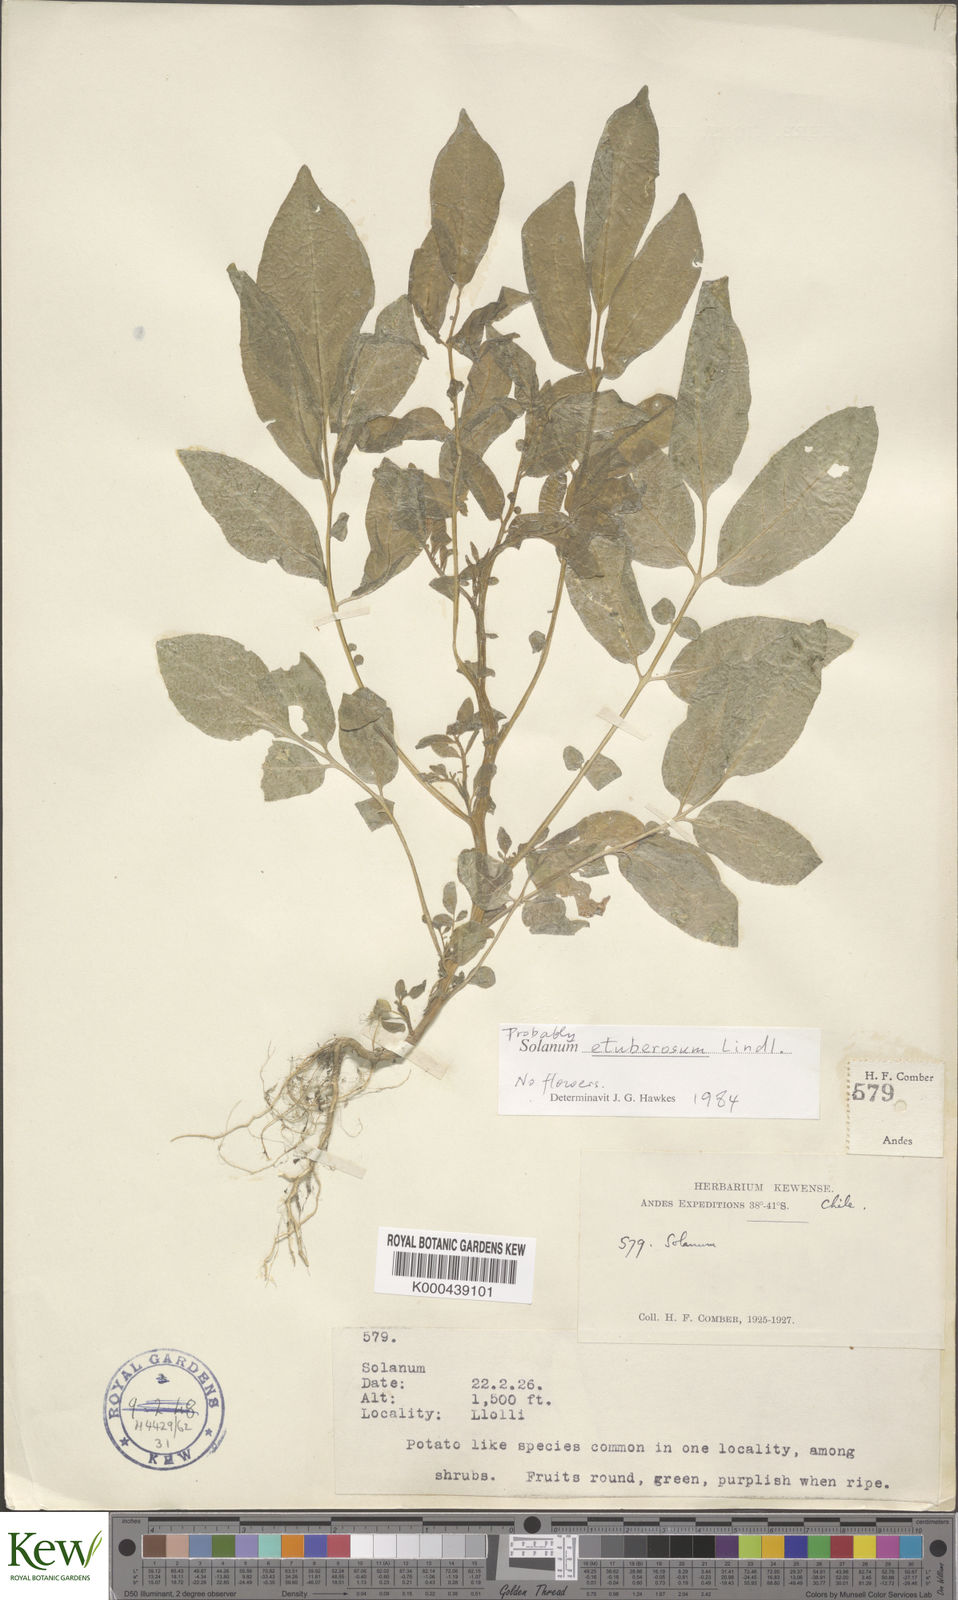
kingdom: Plantae
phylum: Tracheophyta
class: Magnoliopsida
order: Solanales
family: Solanaceae
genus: Solanum
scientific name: Solanum etuberosum
